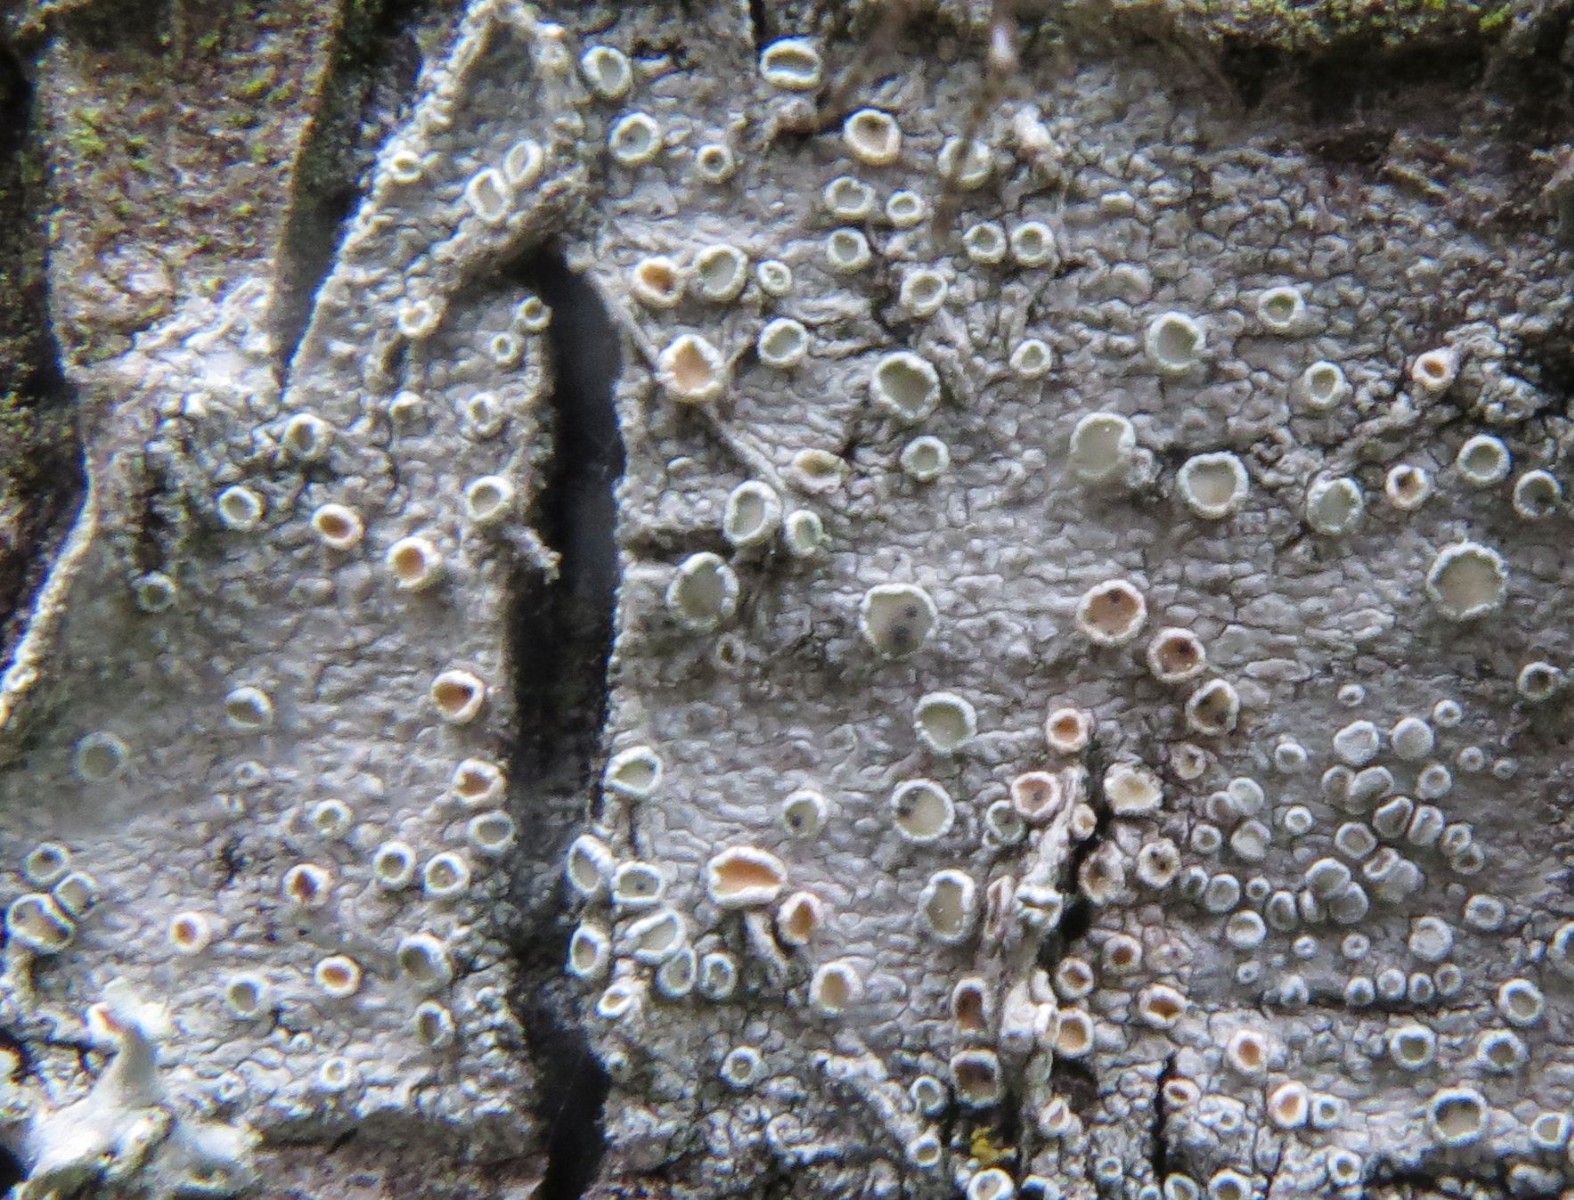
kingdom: Fungi
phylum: Ascomycota
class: Dothideomycetes
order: Pleosporales
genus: Vouauxiella
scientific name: Vouauxiella lichenicola
